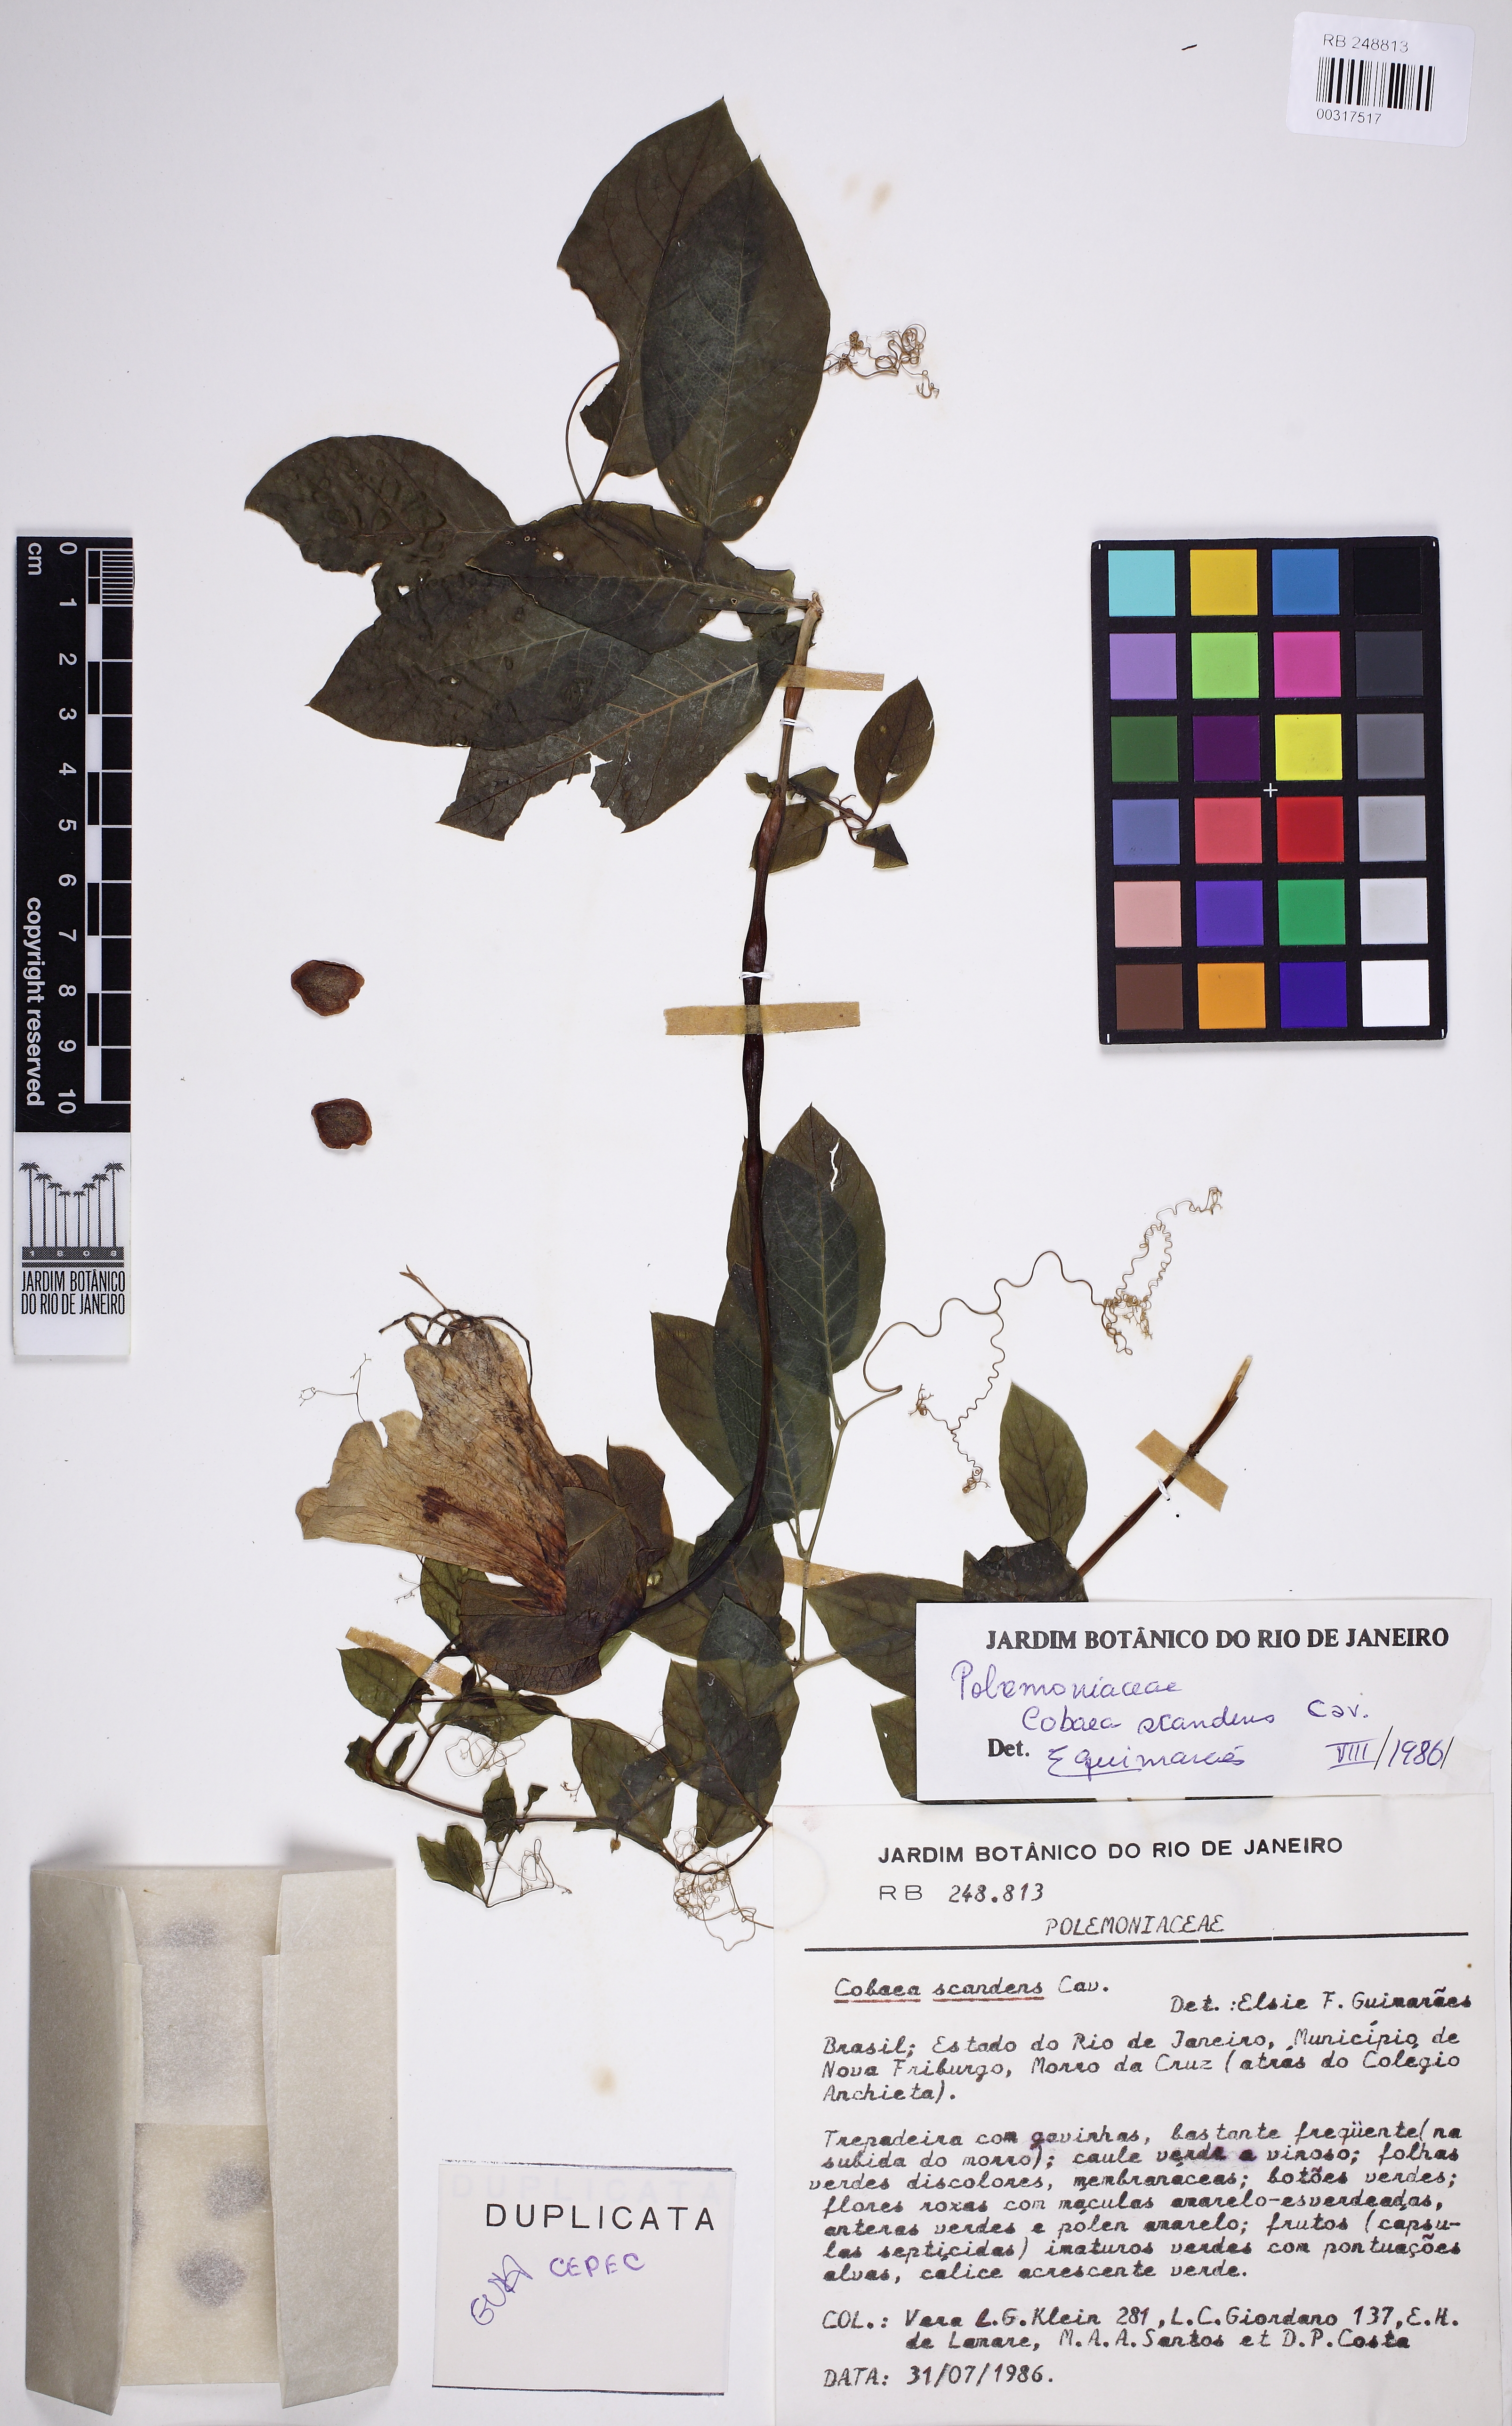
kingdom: Plantae
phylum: Tracheophyta
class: Magnoliopsida
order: Ericales
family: Polemoniaceae
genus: Cobaea
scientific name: Cobaea scandens
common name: Cup-and-saucer-vine
